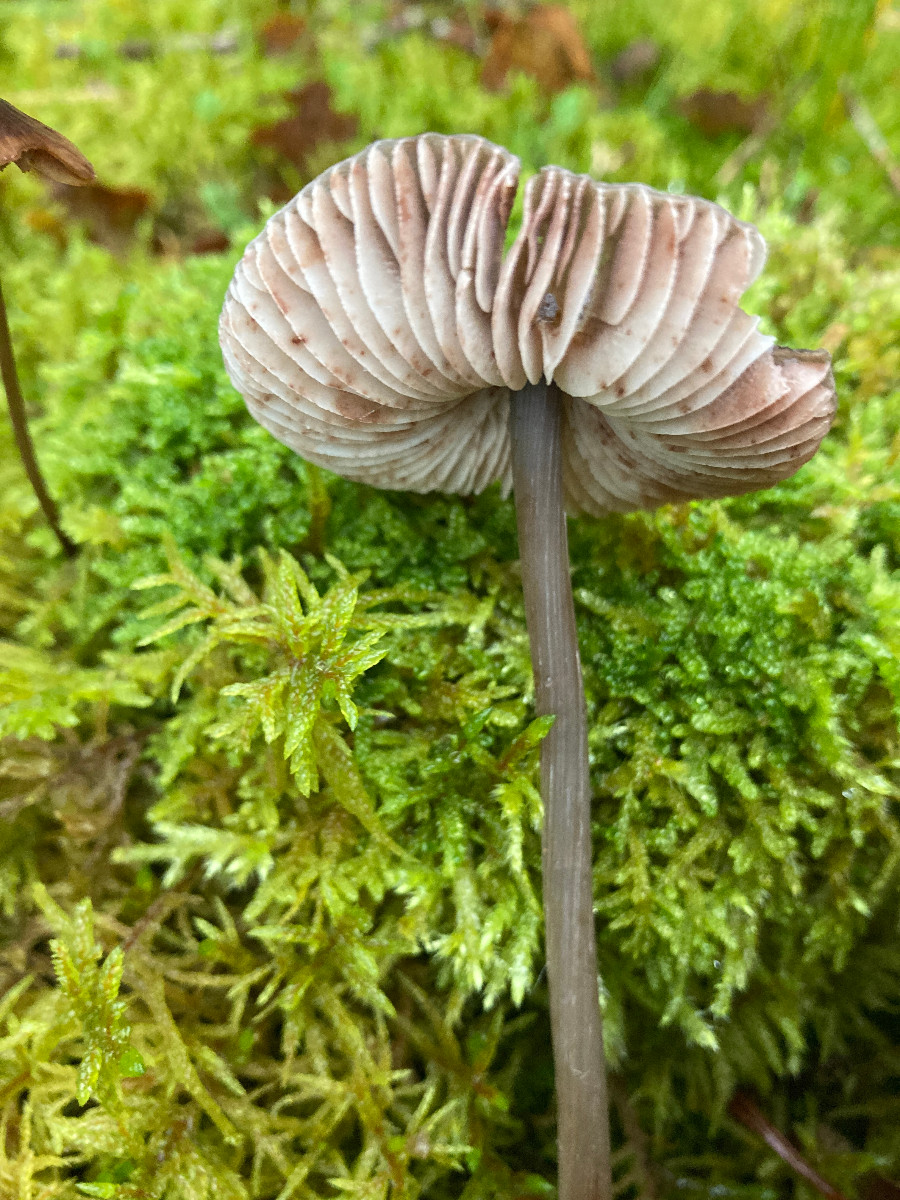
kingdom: Fungi
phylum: Basidiomycota
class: Agaricomycetes
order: Agaricales
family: Mycenaceae
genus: Mycena
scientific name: Mycena polygramma
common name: mangestribet huesvamp
